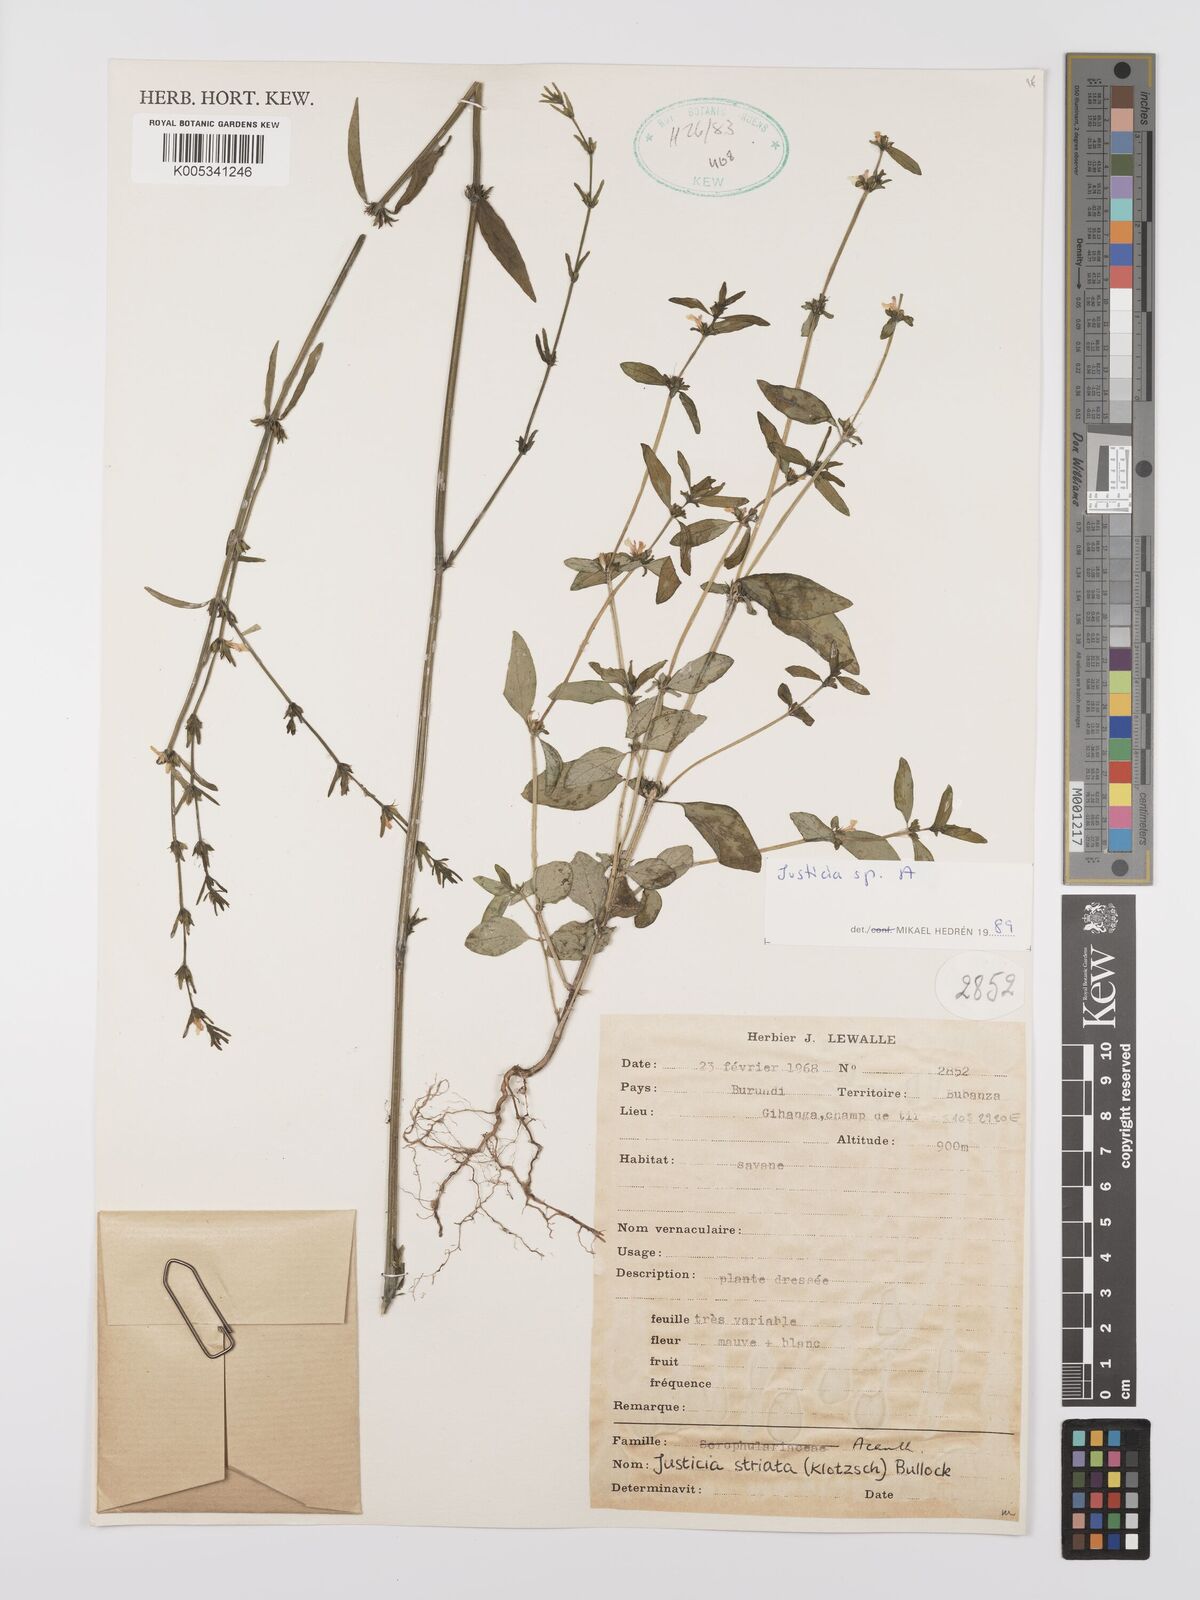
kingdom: Plantae
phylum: Tracheophyta
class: Magnoliopsida
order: Lamiales
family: Acanthaceae
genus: Justicia
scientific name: Justicia boaleri
